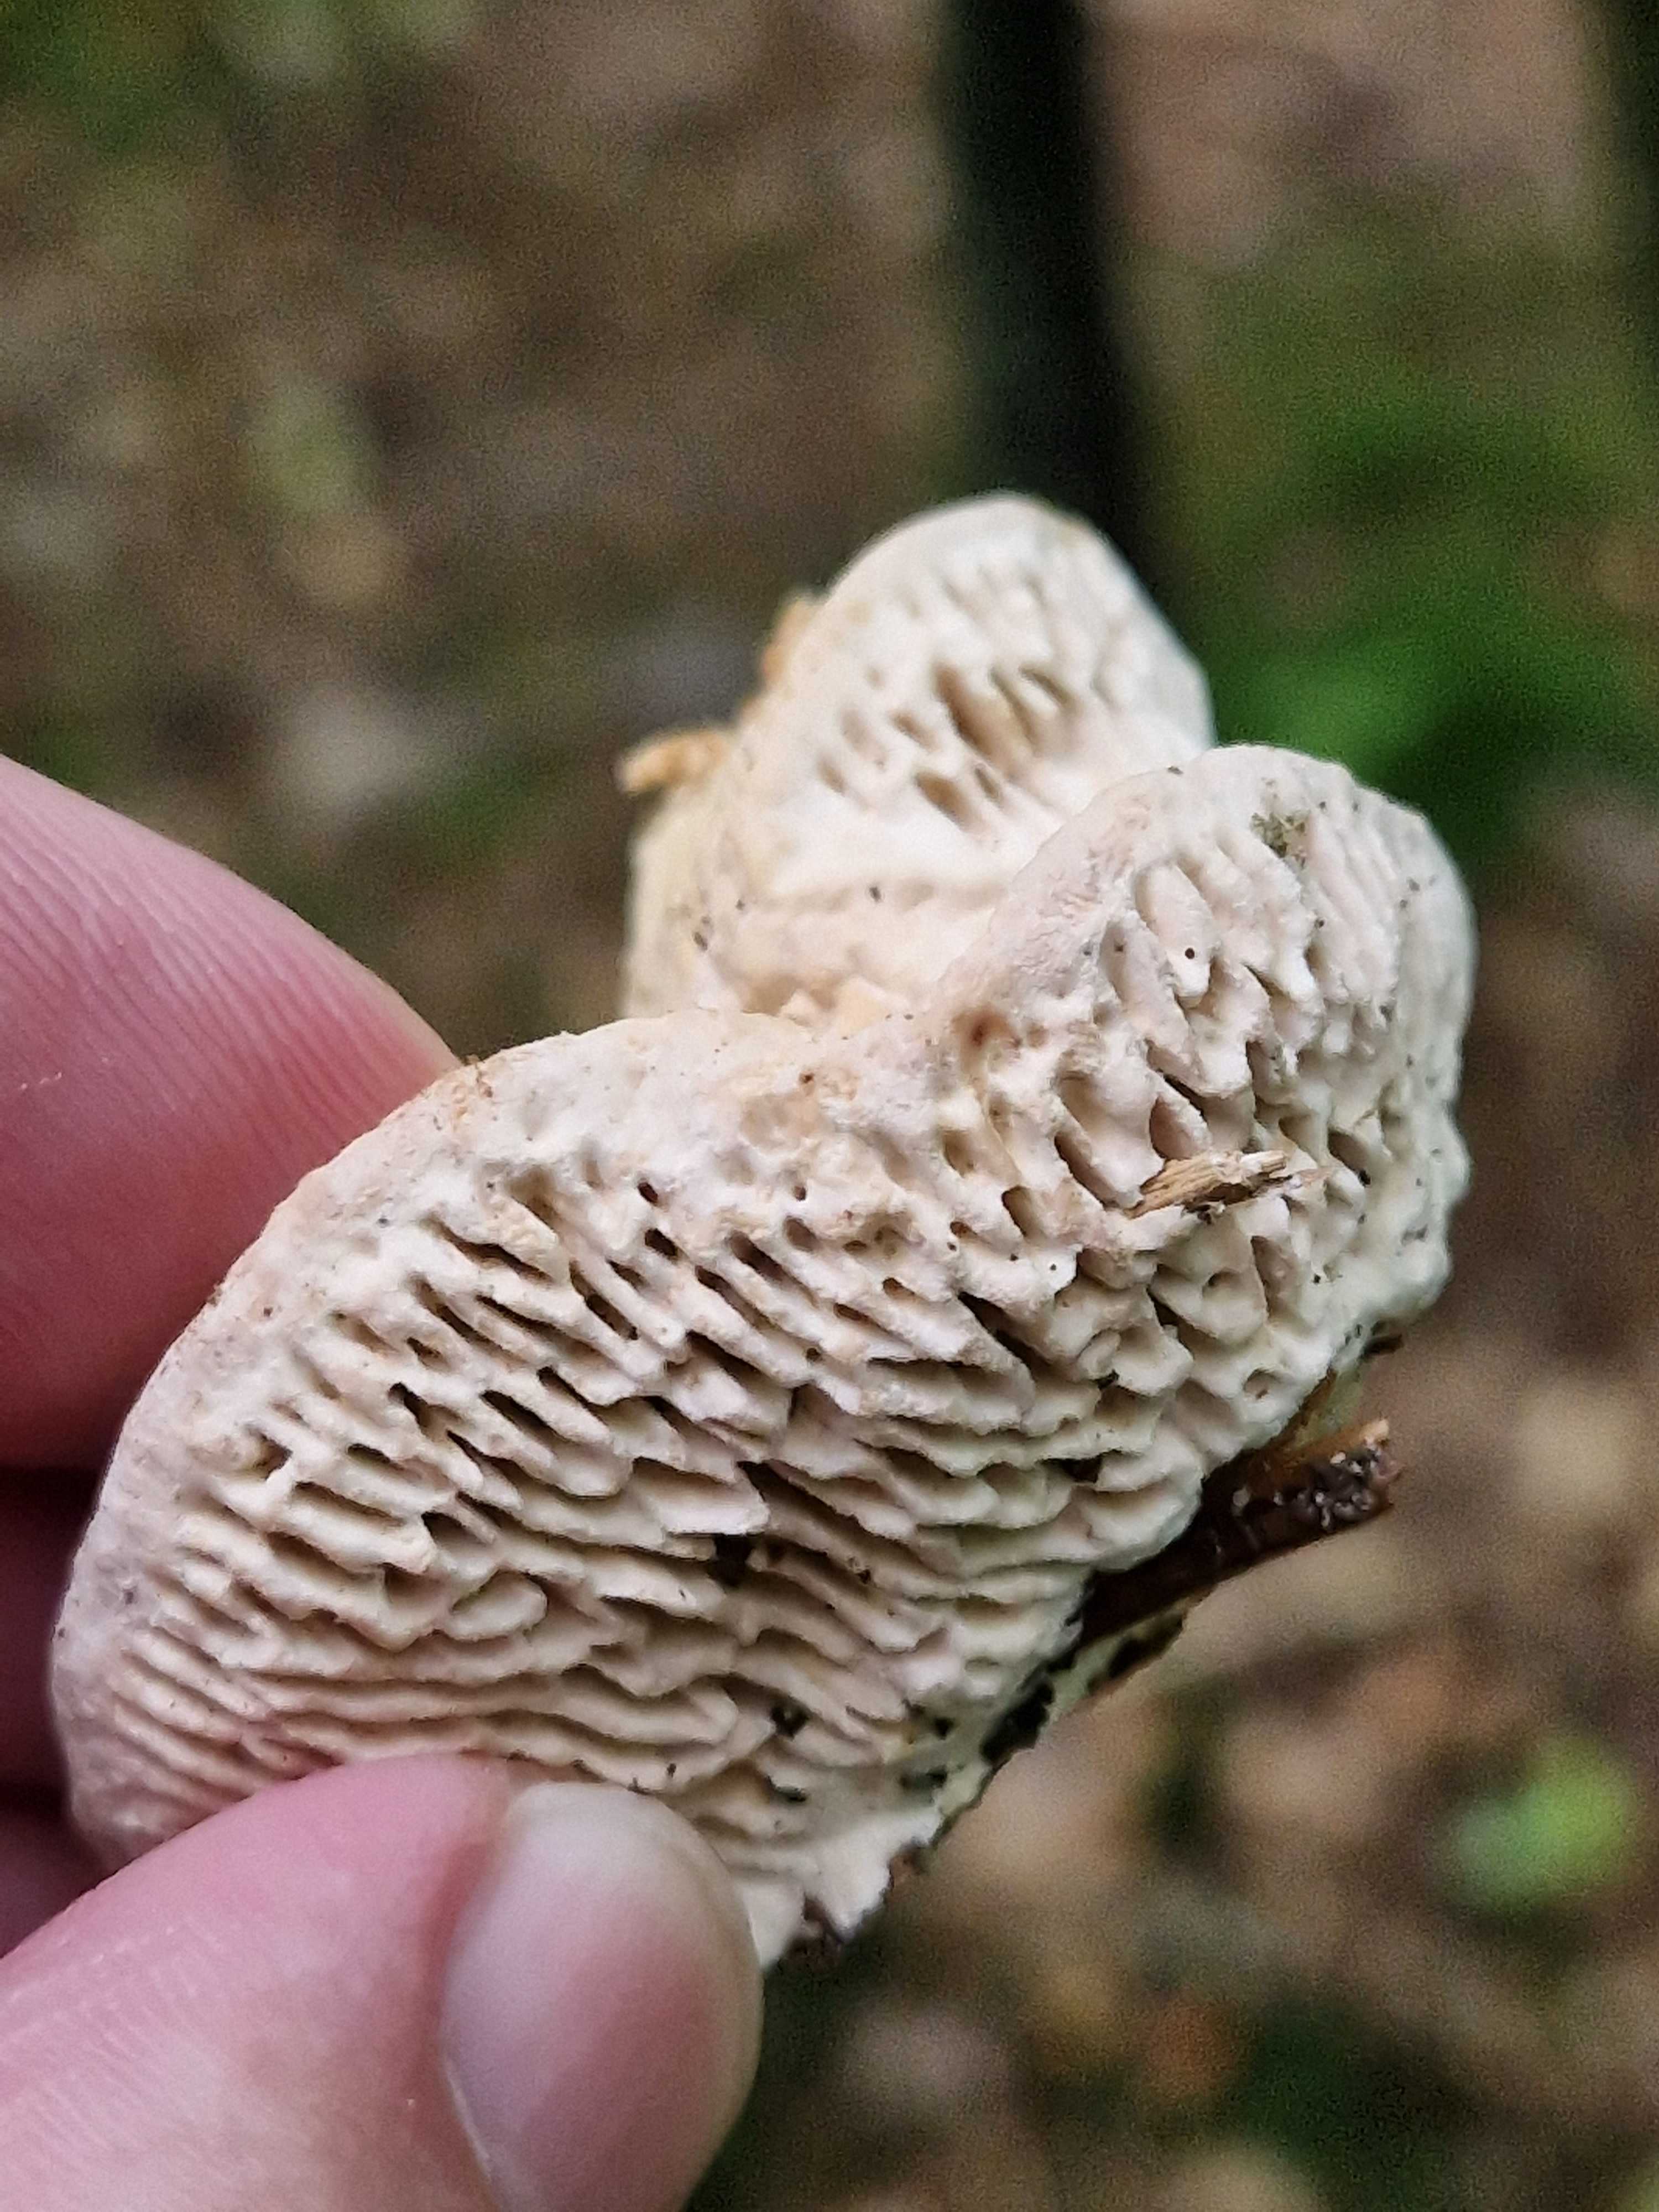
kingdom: Fungi
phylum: Basidiomycota
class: Agaricomycetes
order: Polyporales
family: Fomitopsidaceae
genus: Daedalea
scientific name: Daedalea quercina
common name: ege-labyrintsvamp
